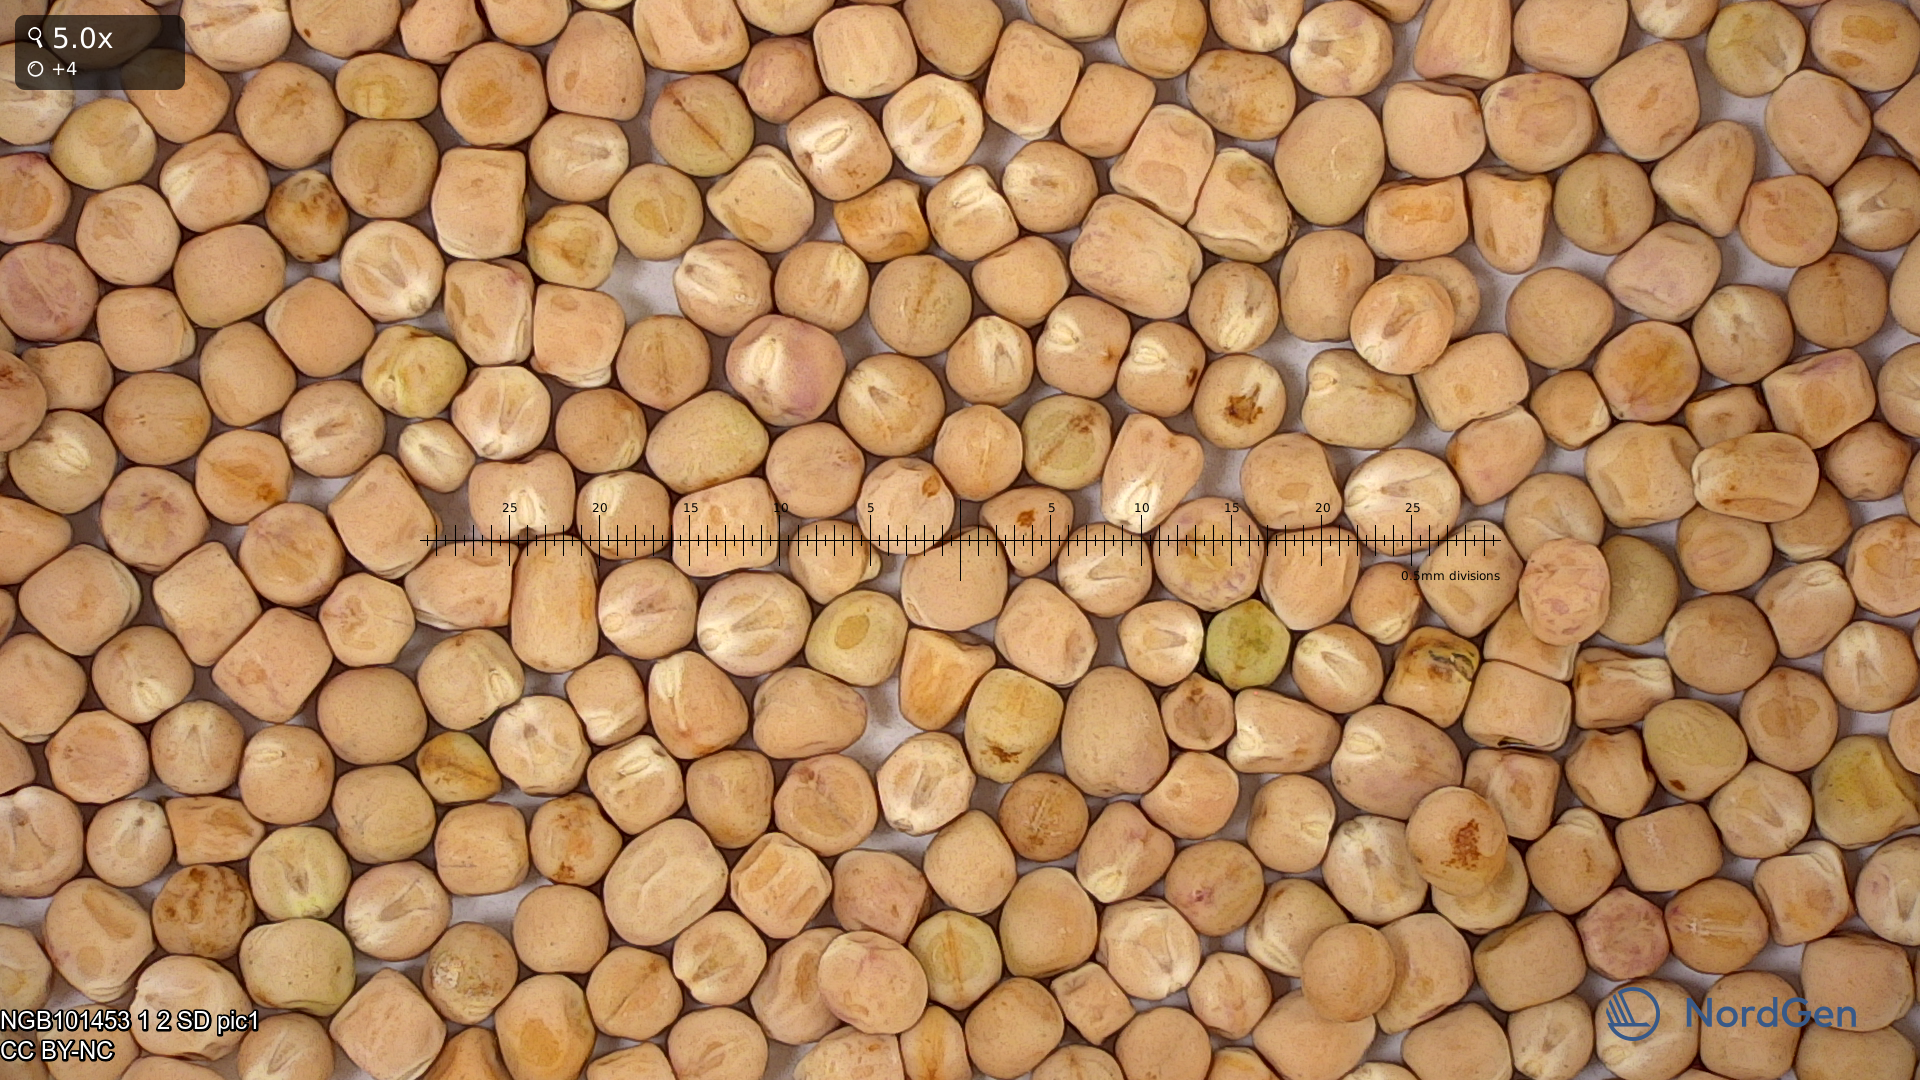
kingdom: Plantae
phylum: Tracheophyta
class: Magnoliopsida
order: Fabales
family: Fabaceae
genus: Lathyrus
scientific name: Lathyrus oleraceus
